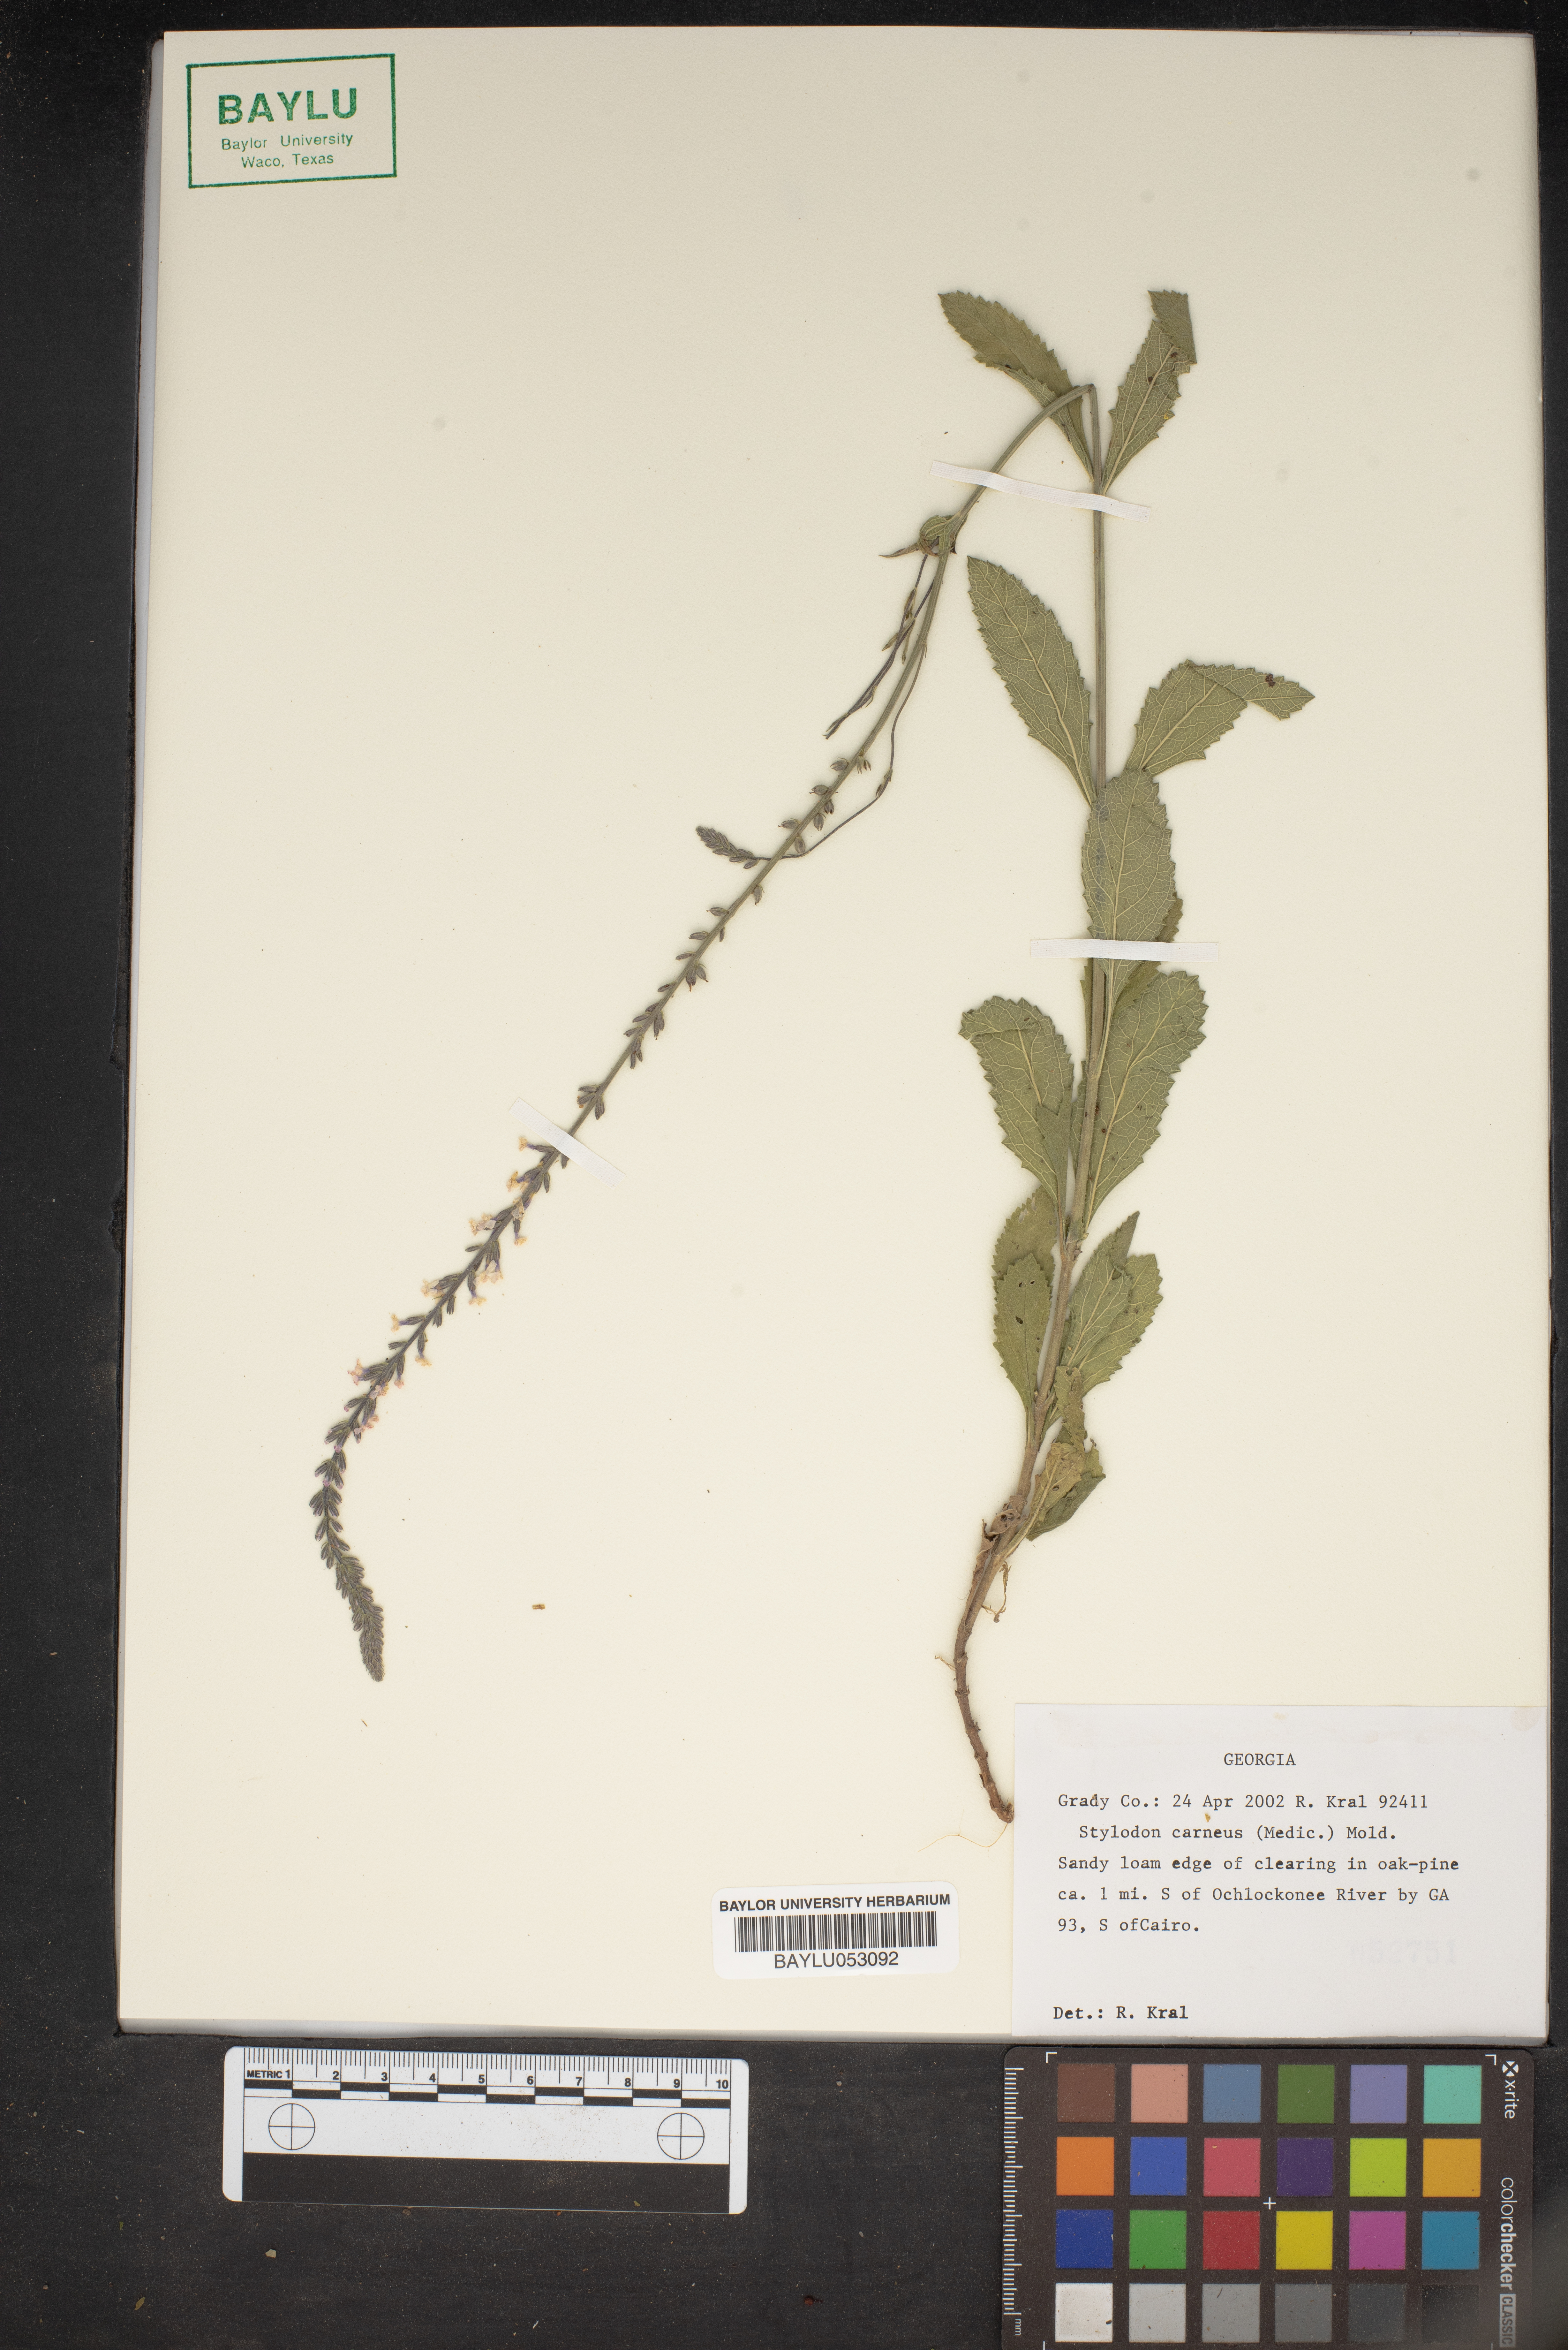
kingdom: Plantae
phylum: Tracheophyta
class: Magnoliopsida
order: Lamiales
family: Verbenaceae
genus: Verbena
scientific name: Verbena carnea
